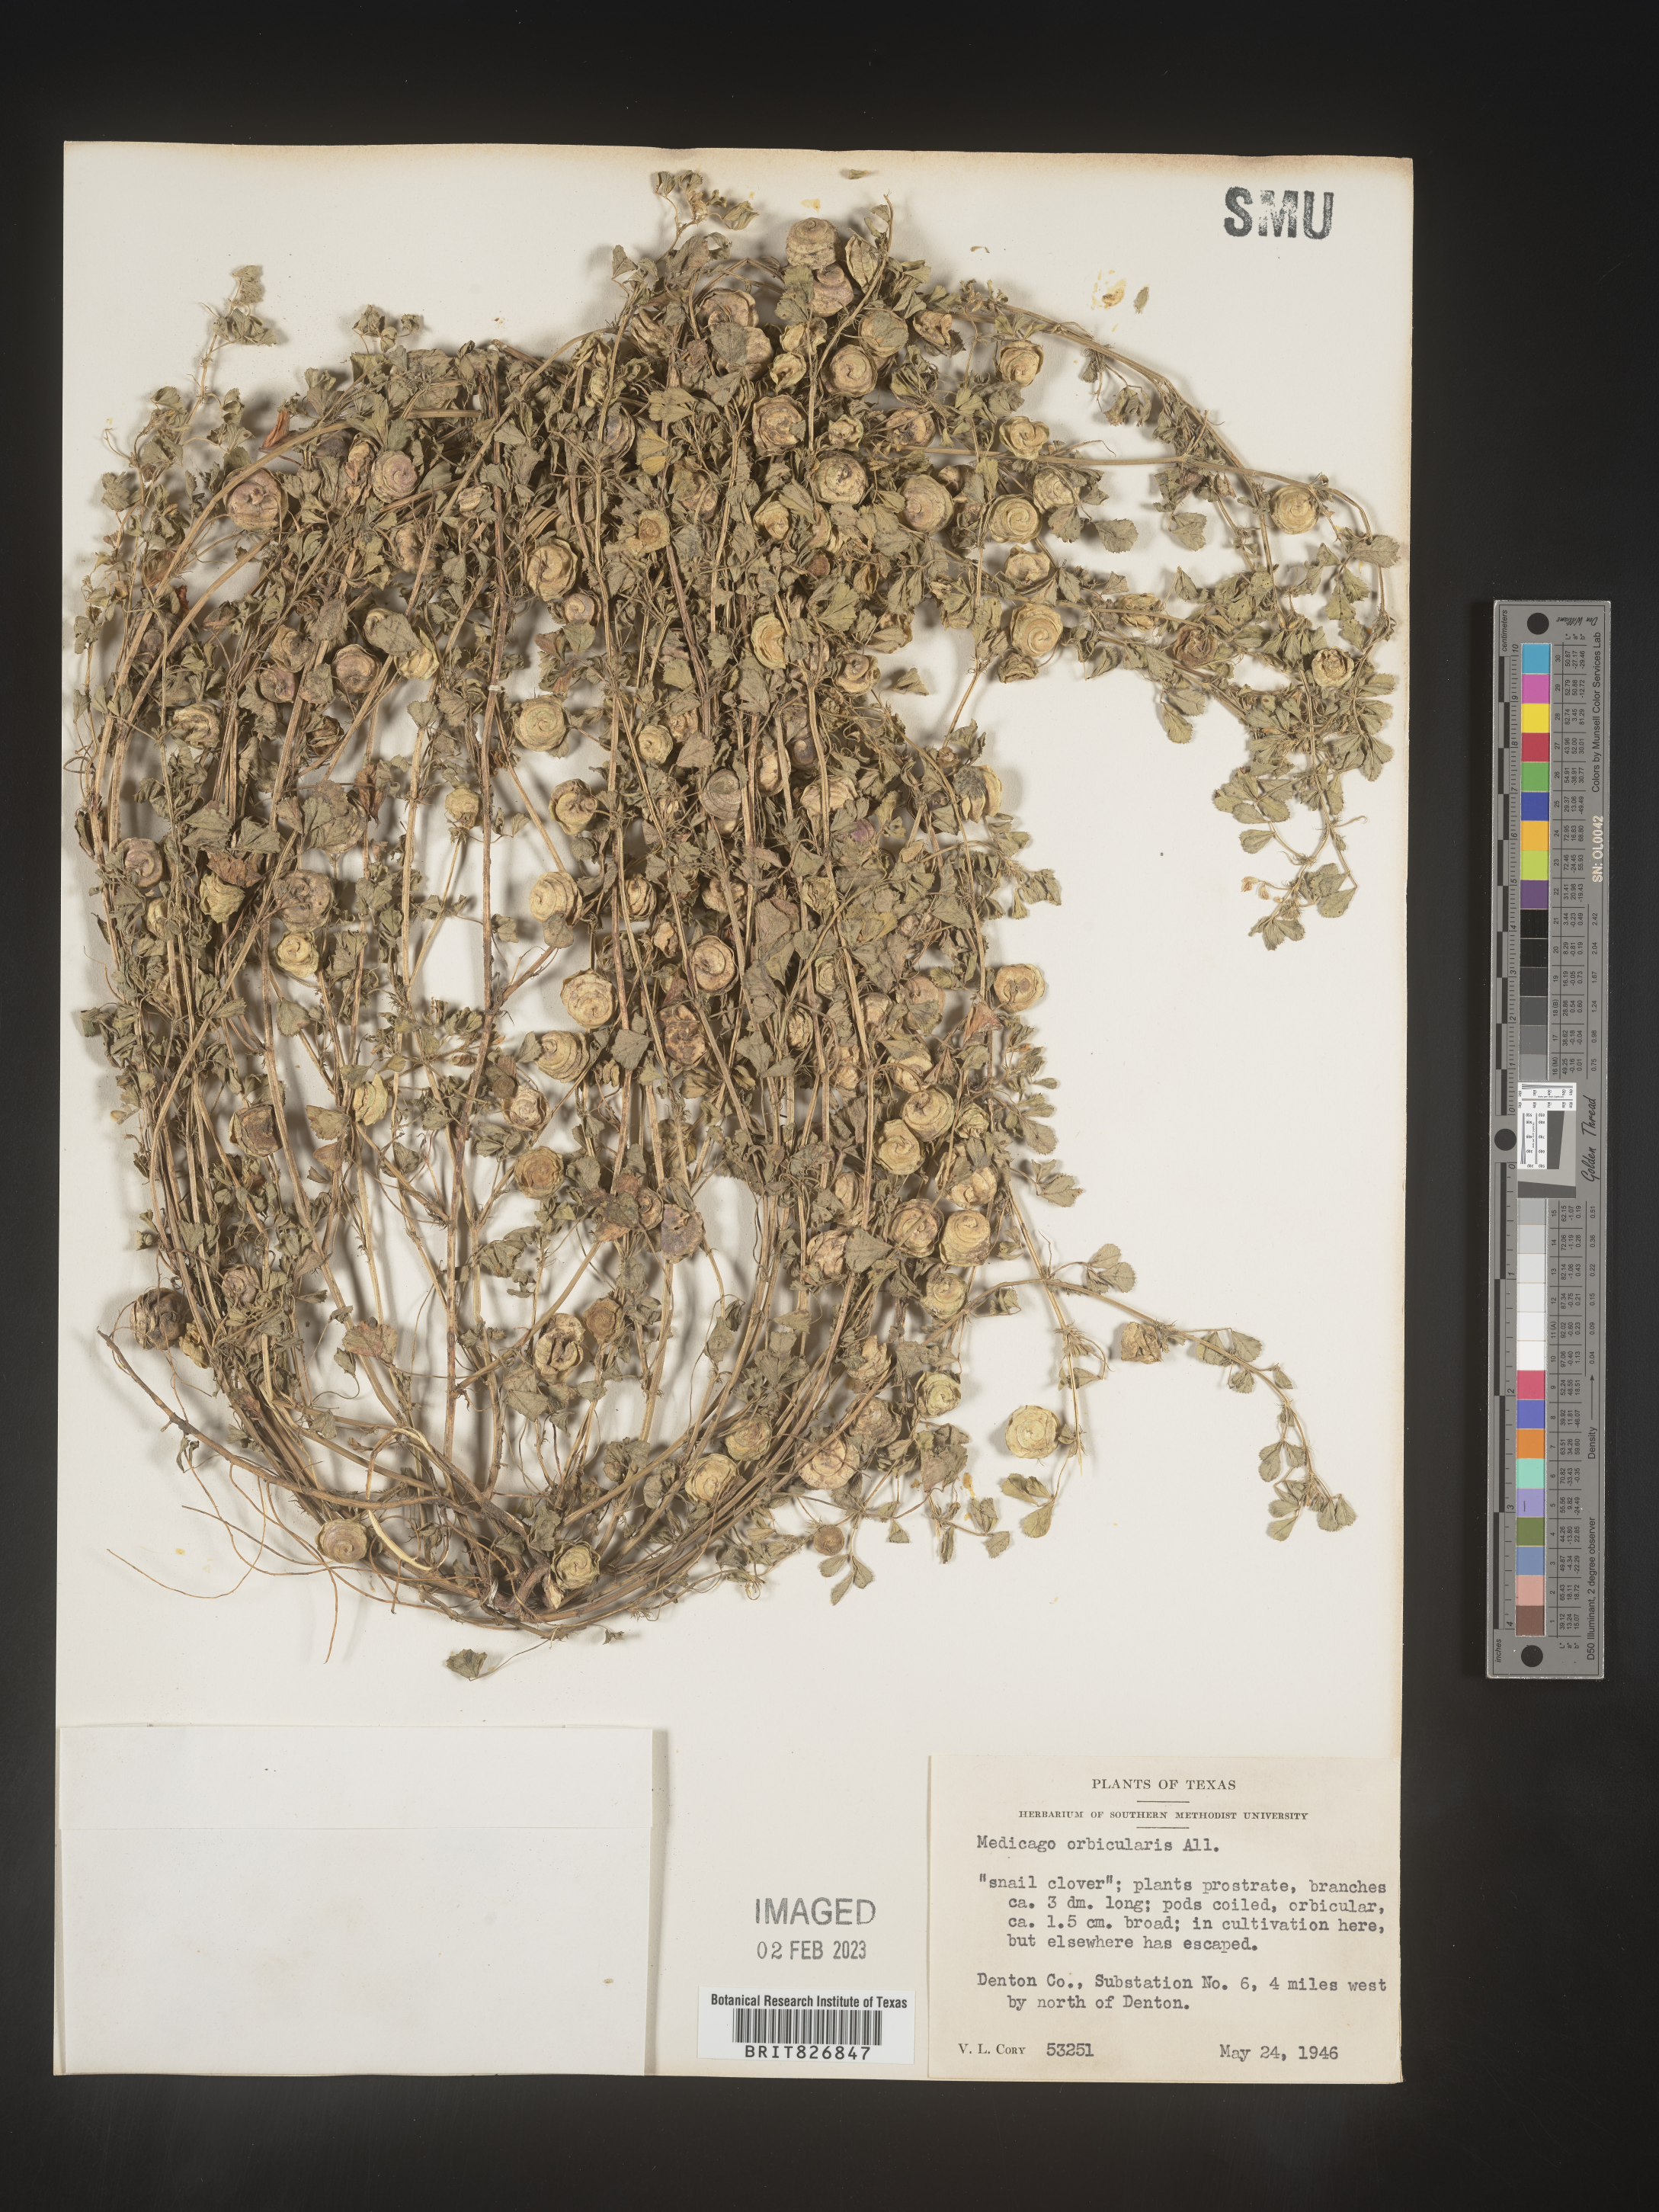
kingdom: Plantae
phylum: Tracheophyta
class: Magnoliopsida
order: Fabales
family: Fabaceae
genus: Medicago
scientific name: Medicago
